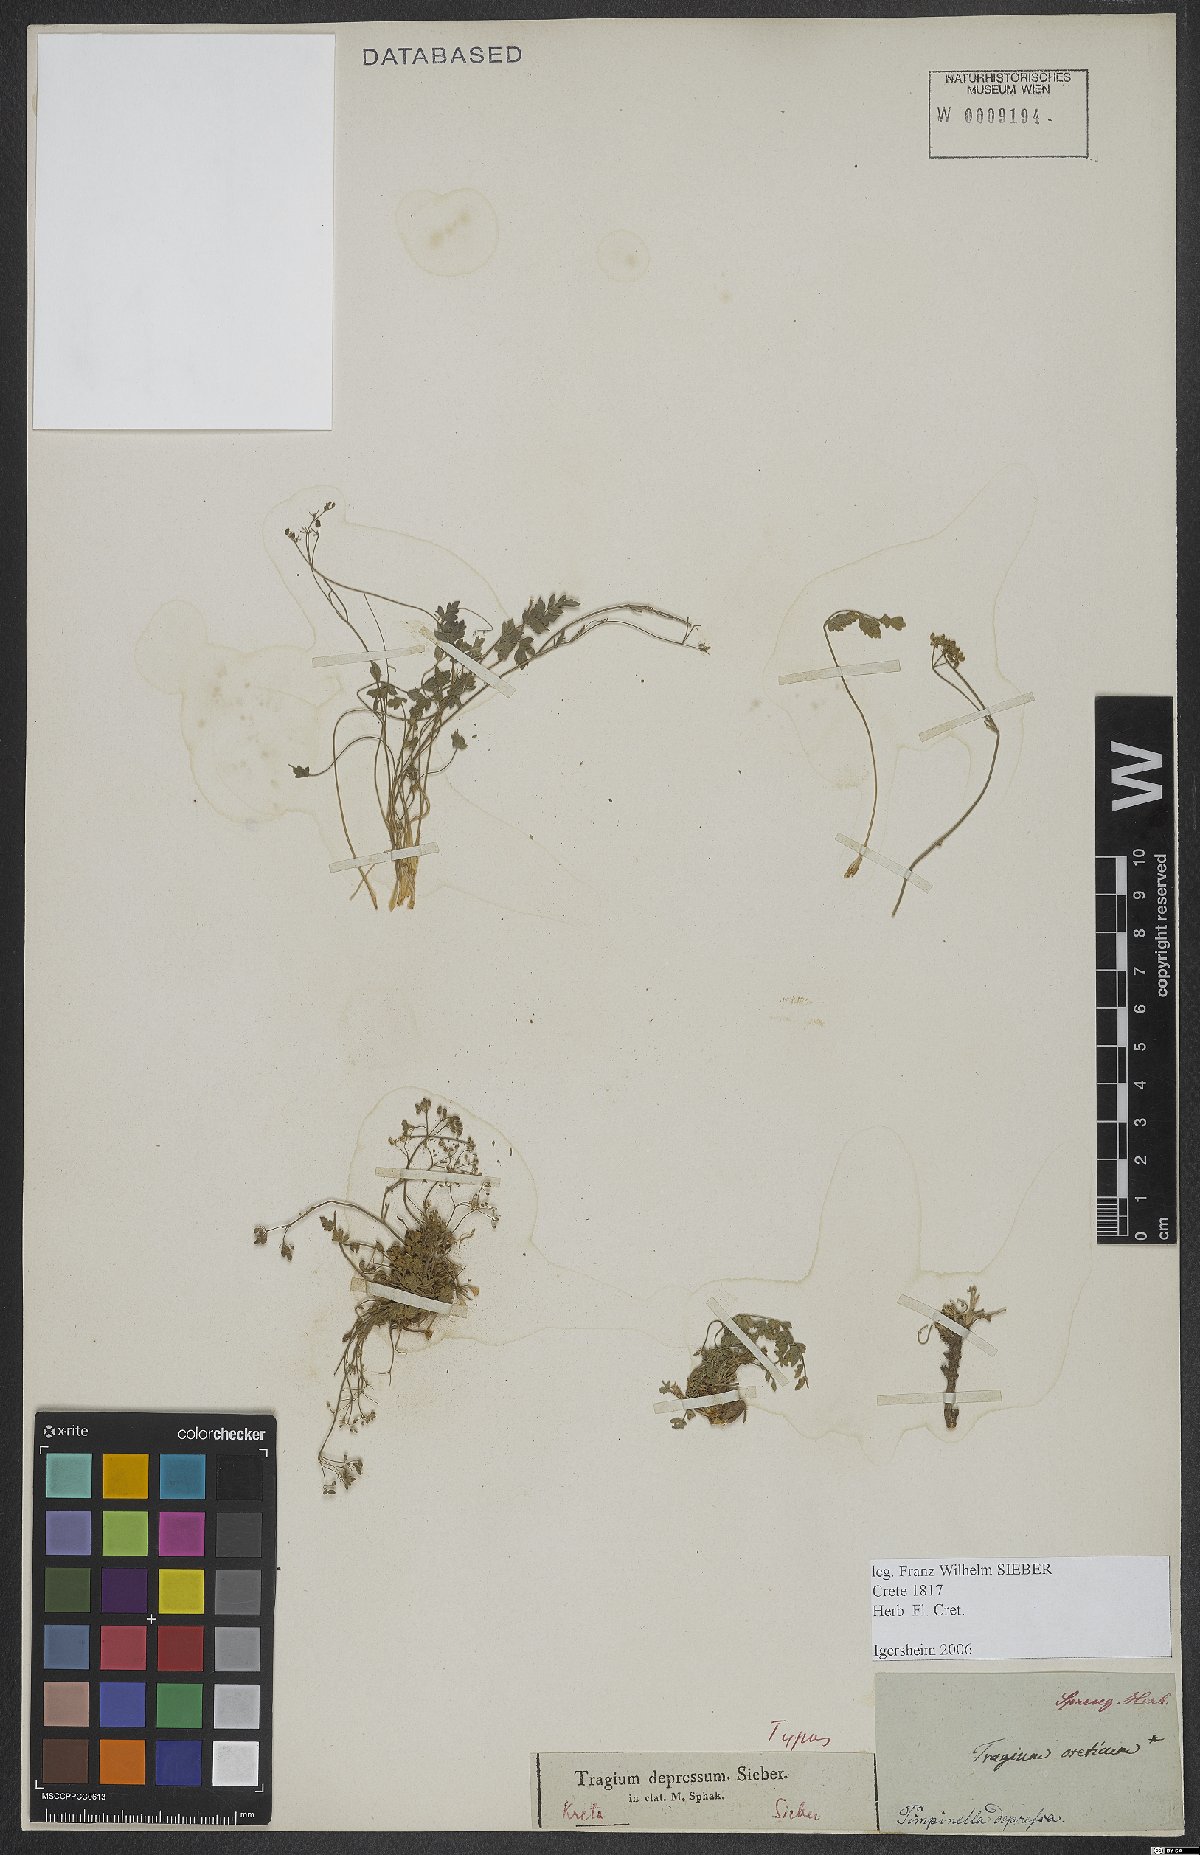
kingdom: Plantae
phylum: Tracheophyta
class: Magnoliopsida
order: Apiales
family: Apiaceae
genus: Pimpinella
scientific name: Pimpinella tragium
